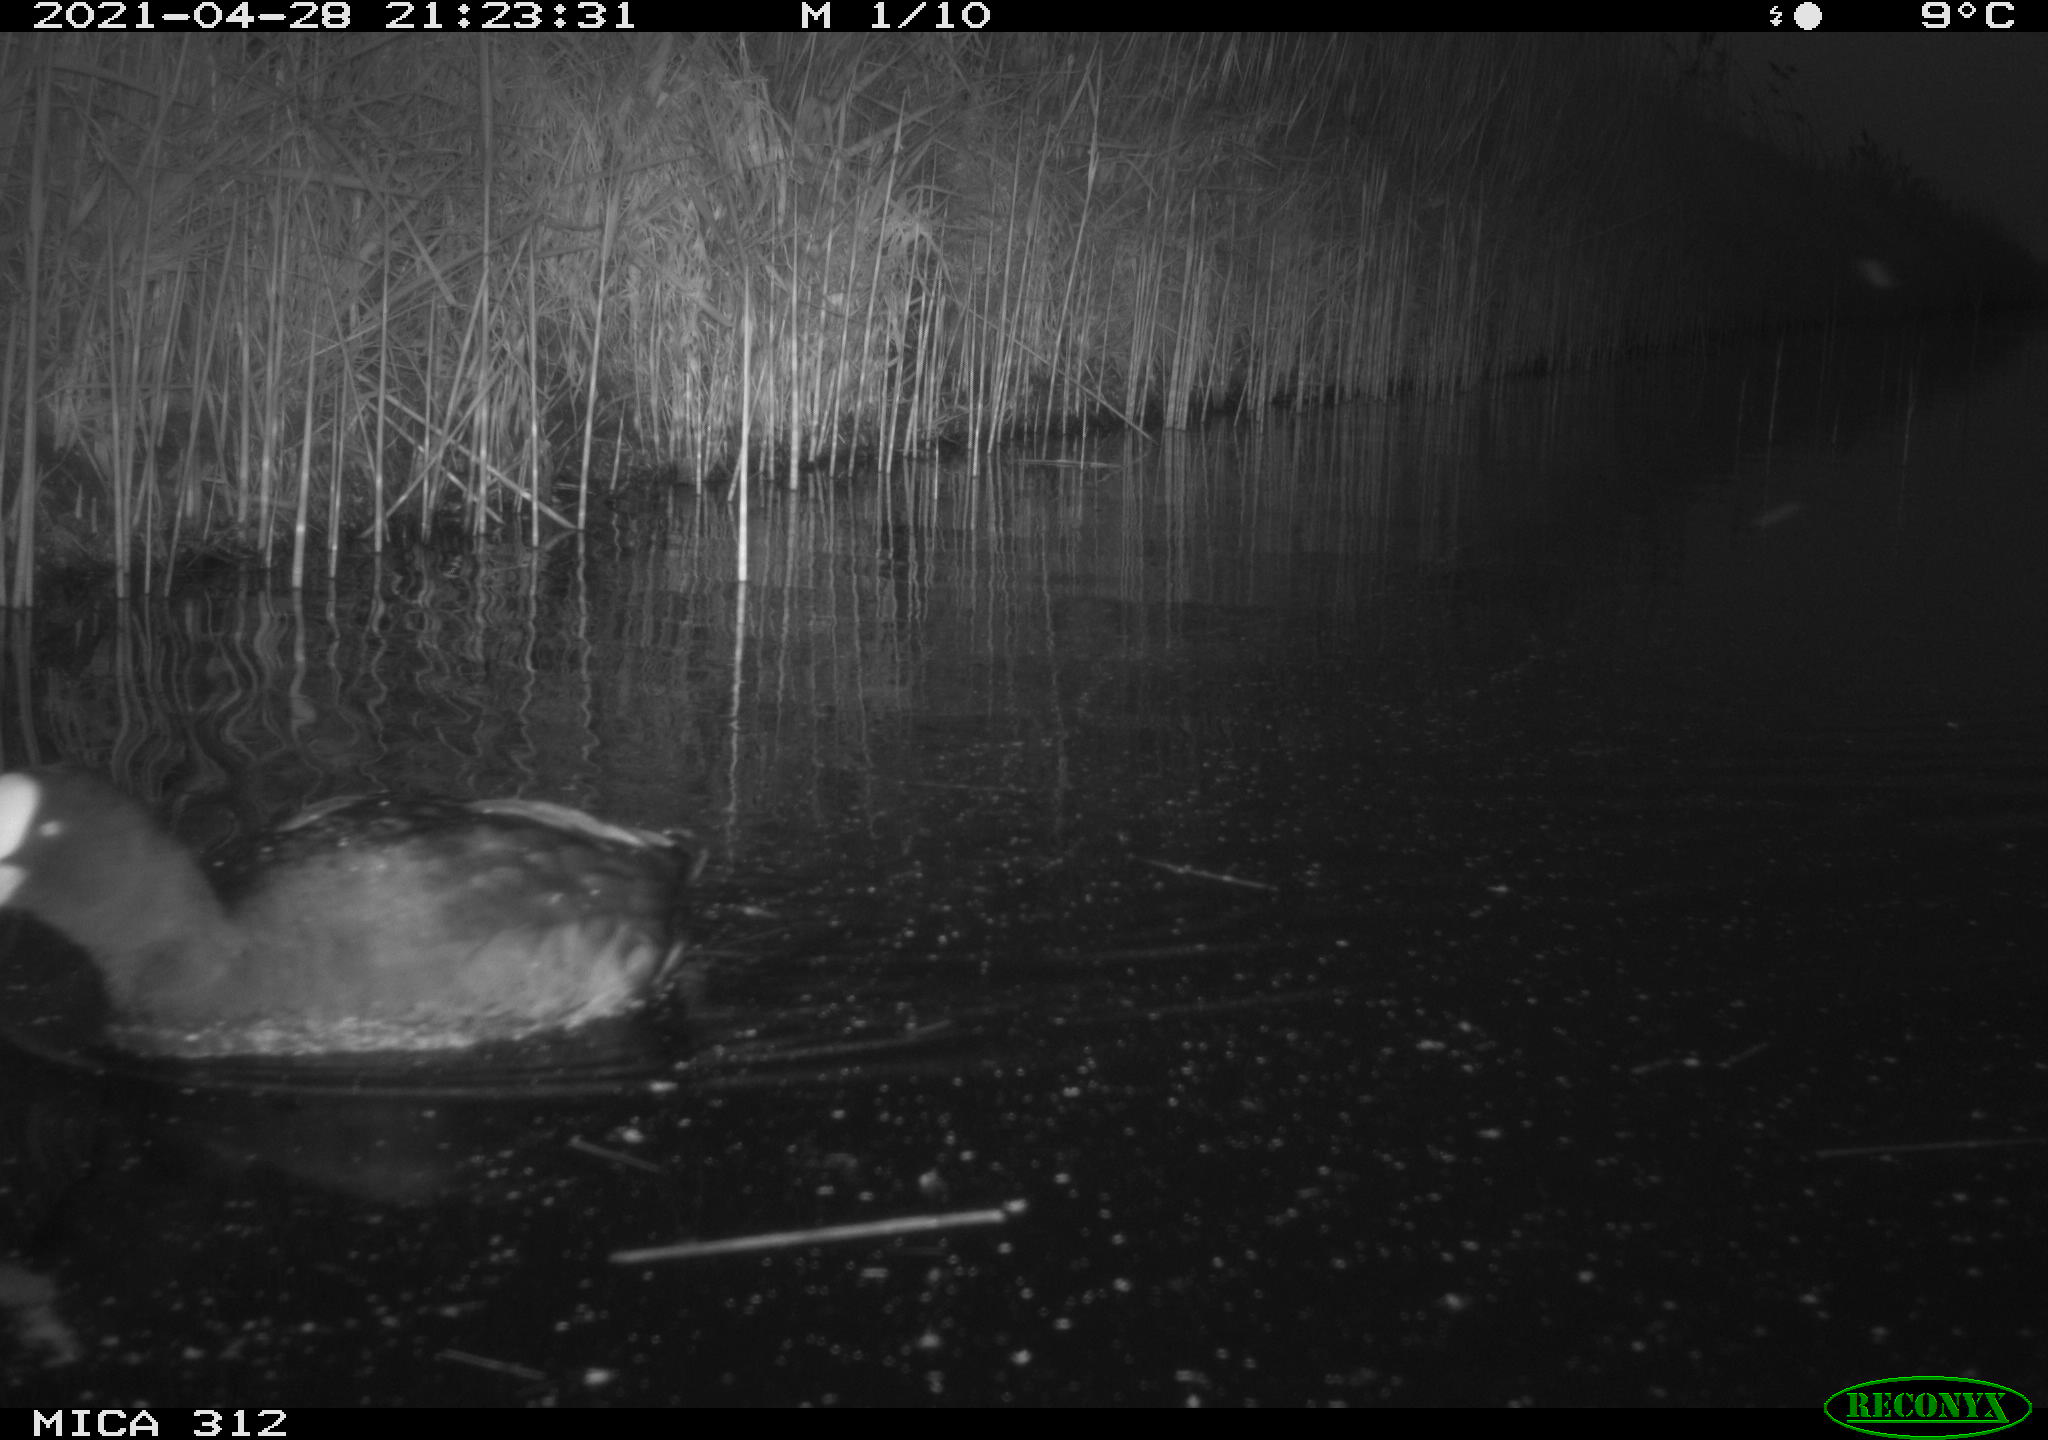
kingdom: Animalia
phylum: Chordata
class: Aves
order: Gruiformes
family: Rallidae
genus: Fulica
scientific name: Fulica atra
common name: Eurasian coot
